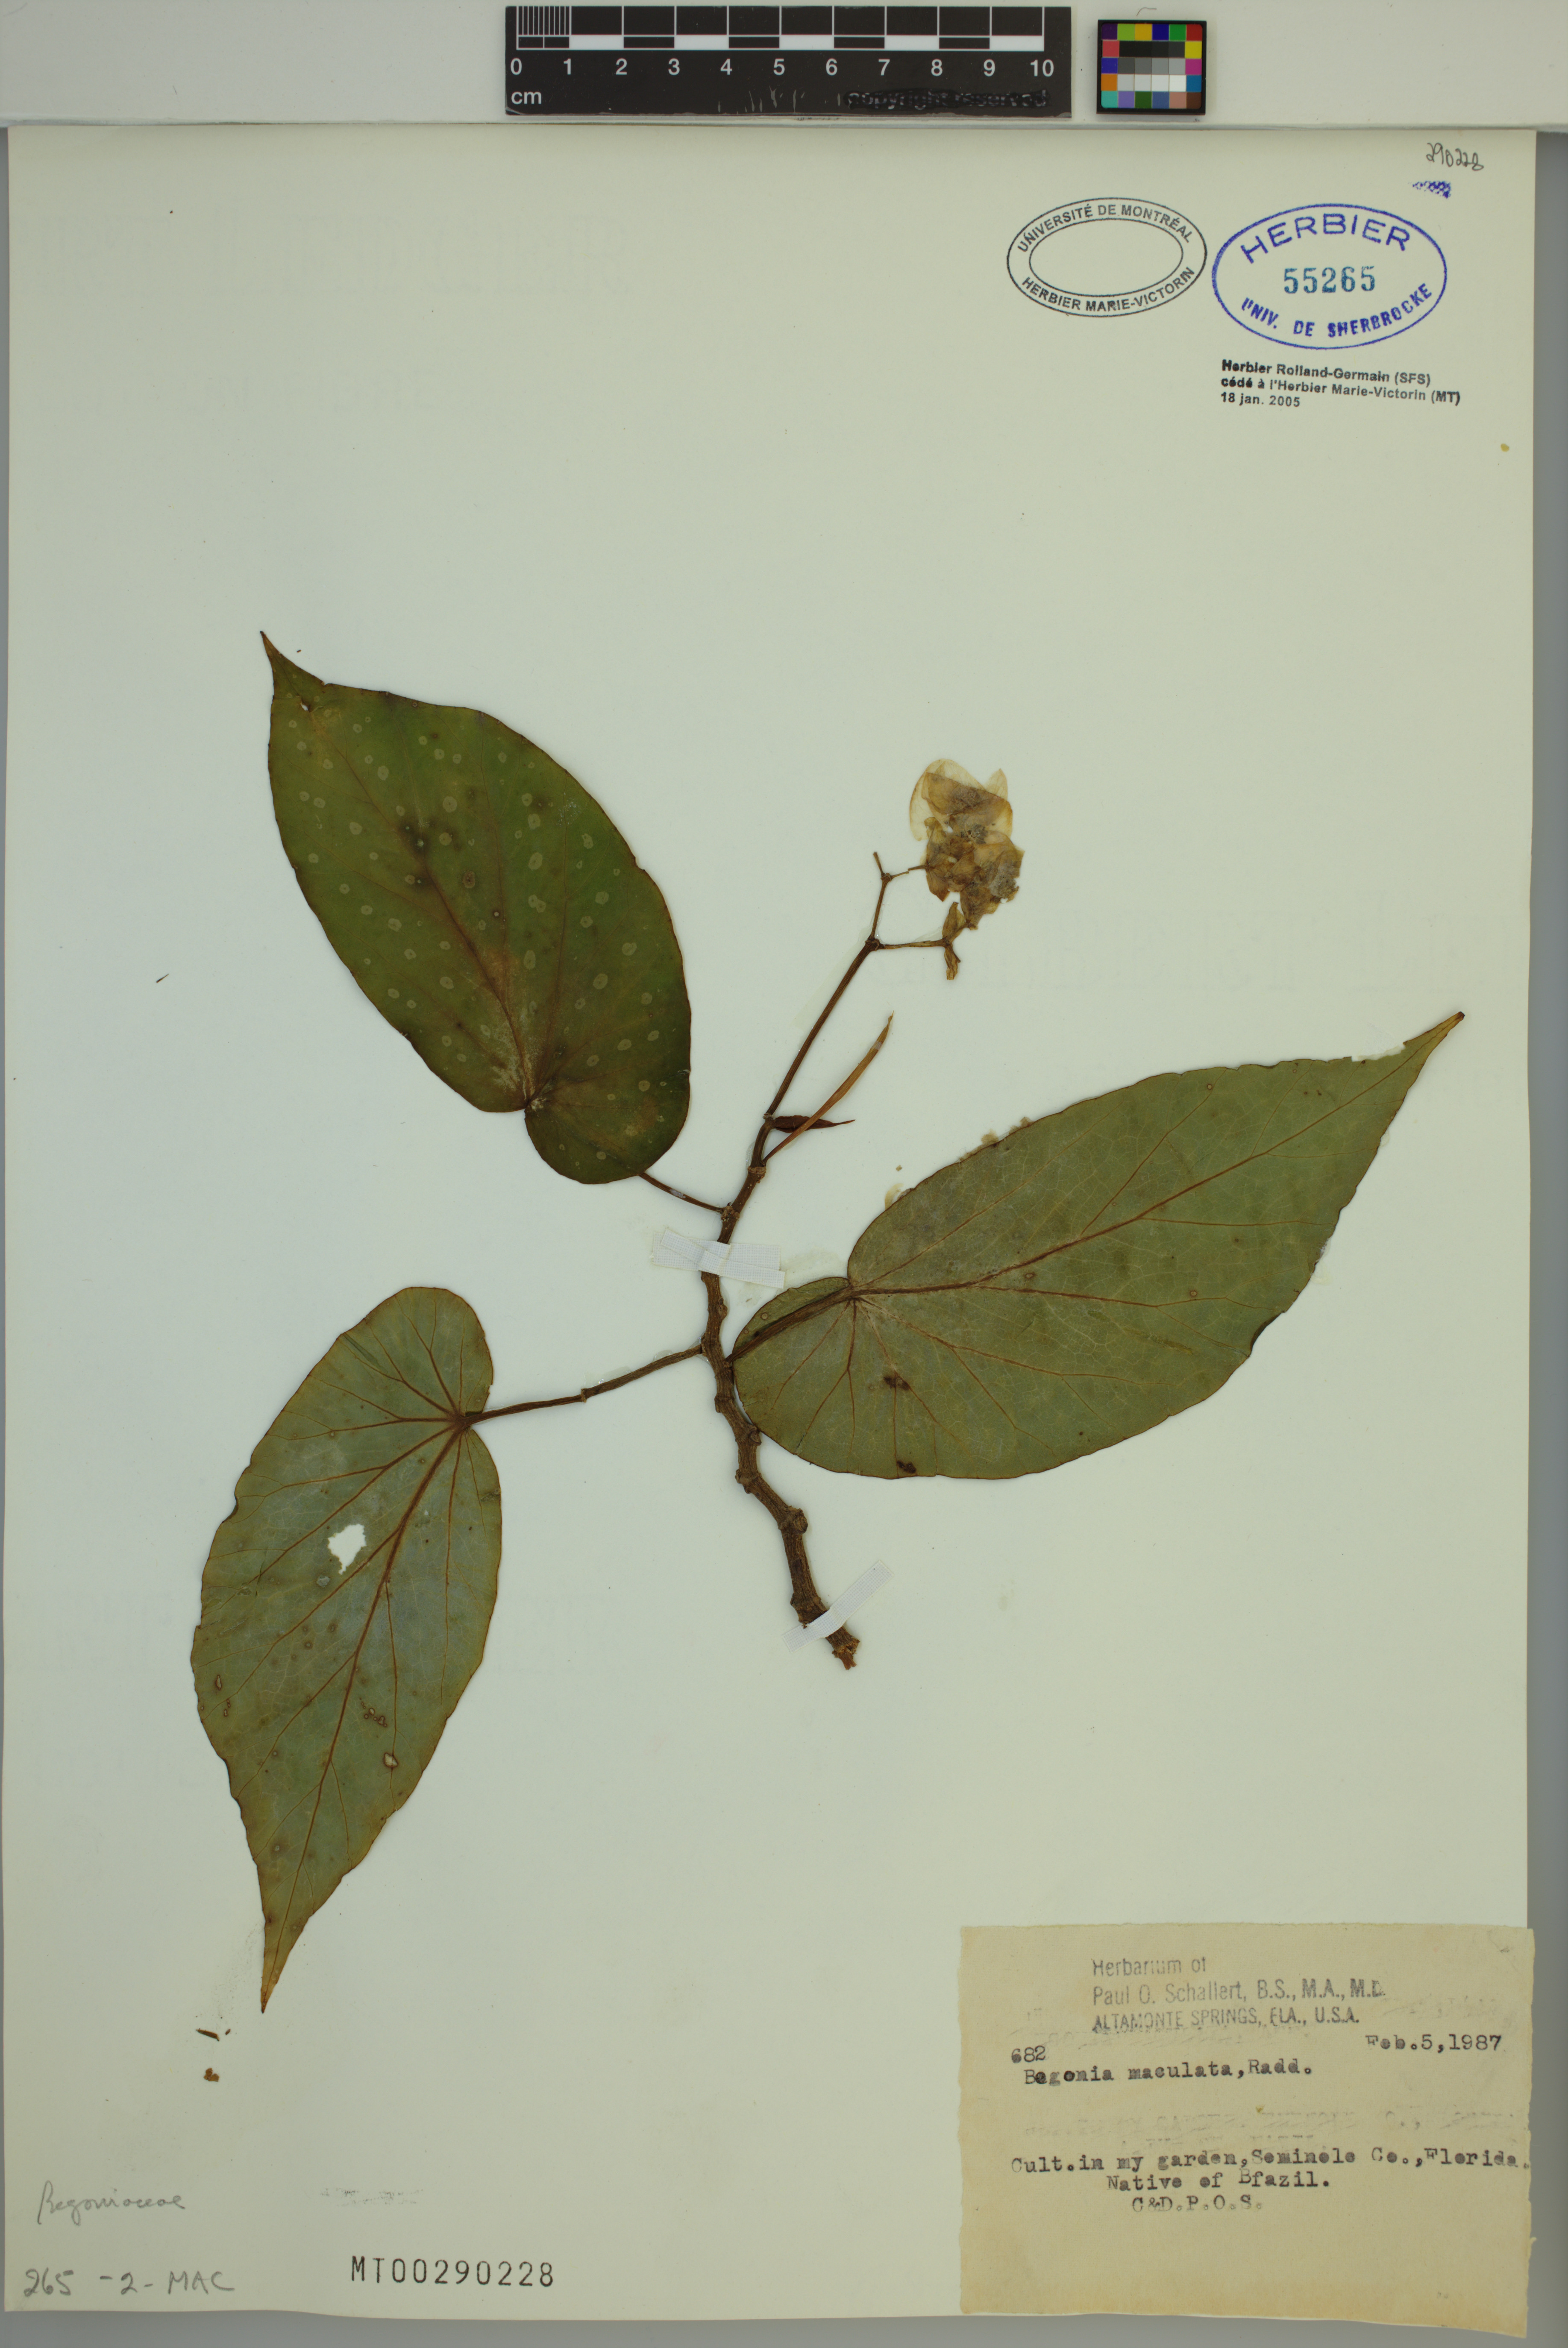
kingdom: Plantae
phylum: Tracheophyta
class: Magnoliopsida
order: Cucurbitales
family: Begoniaceae
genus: Begonia
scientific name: Begonia maculata
